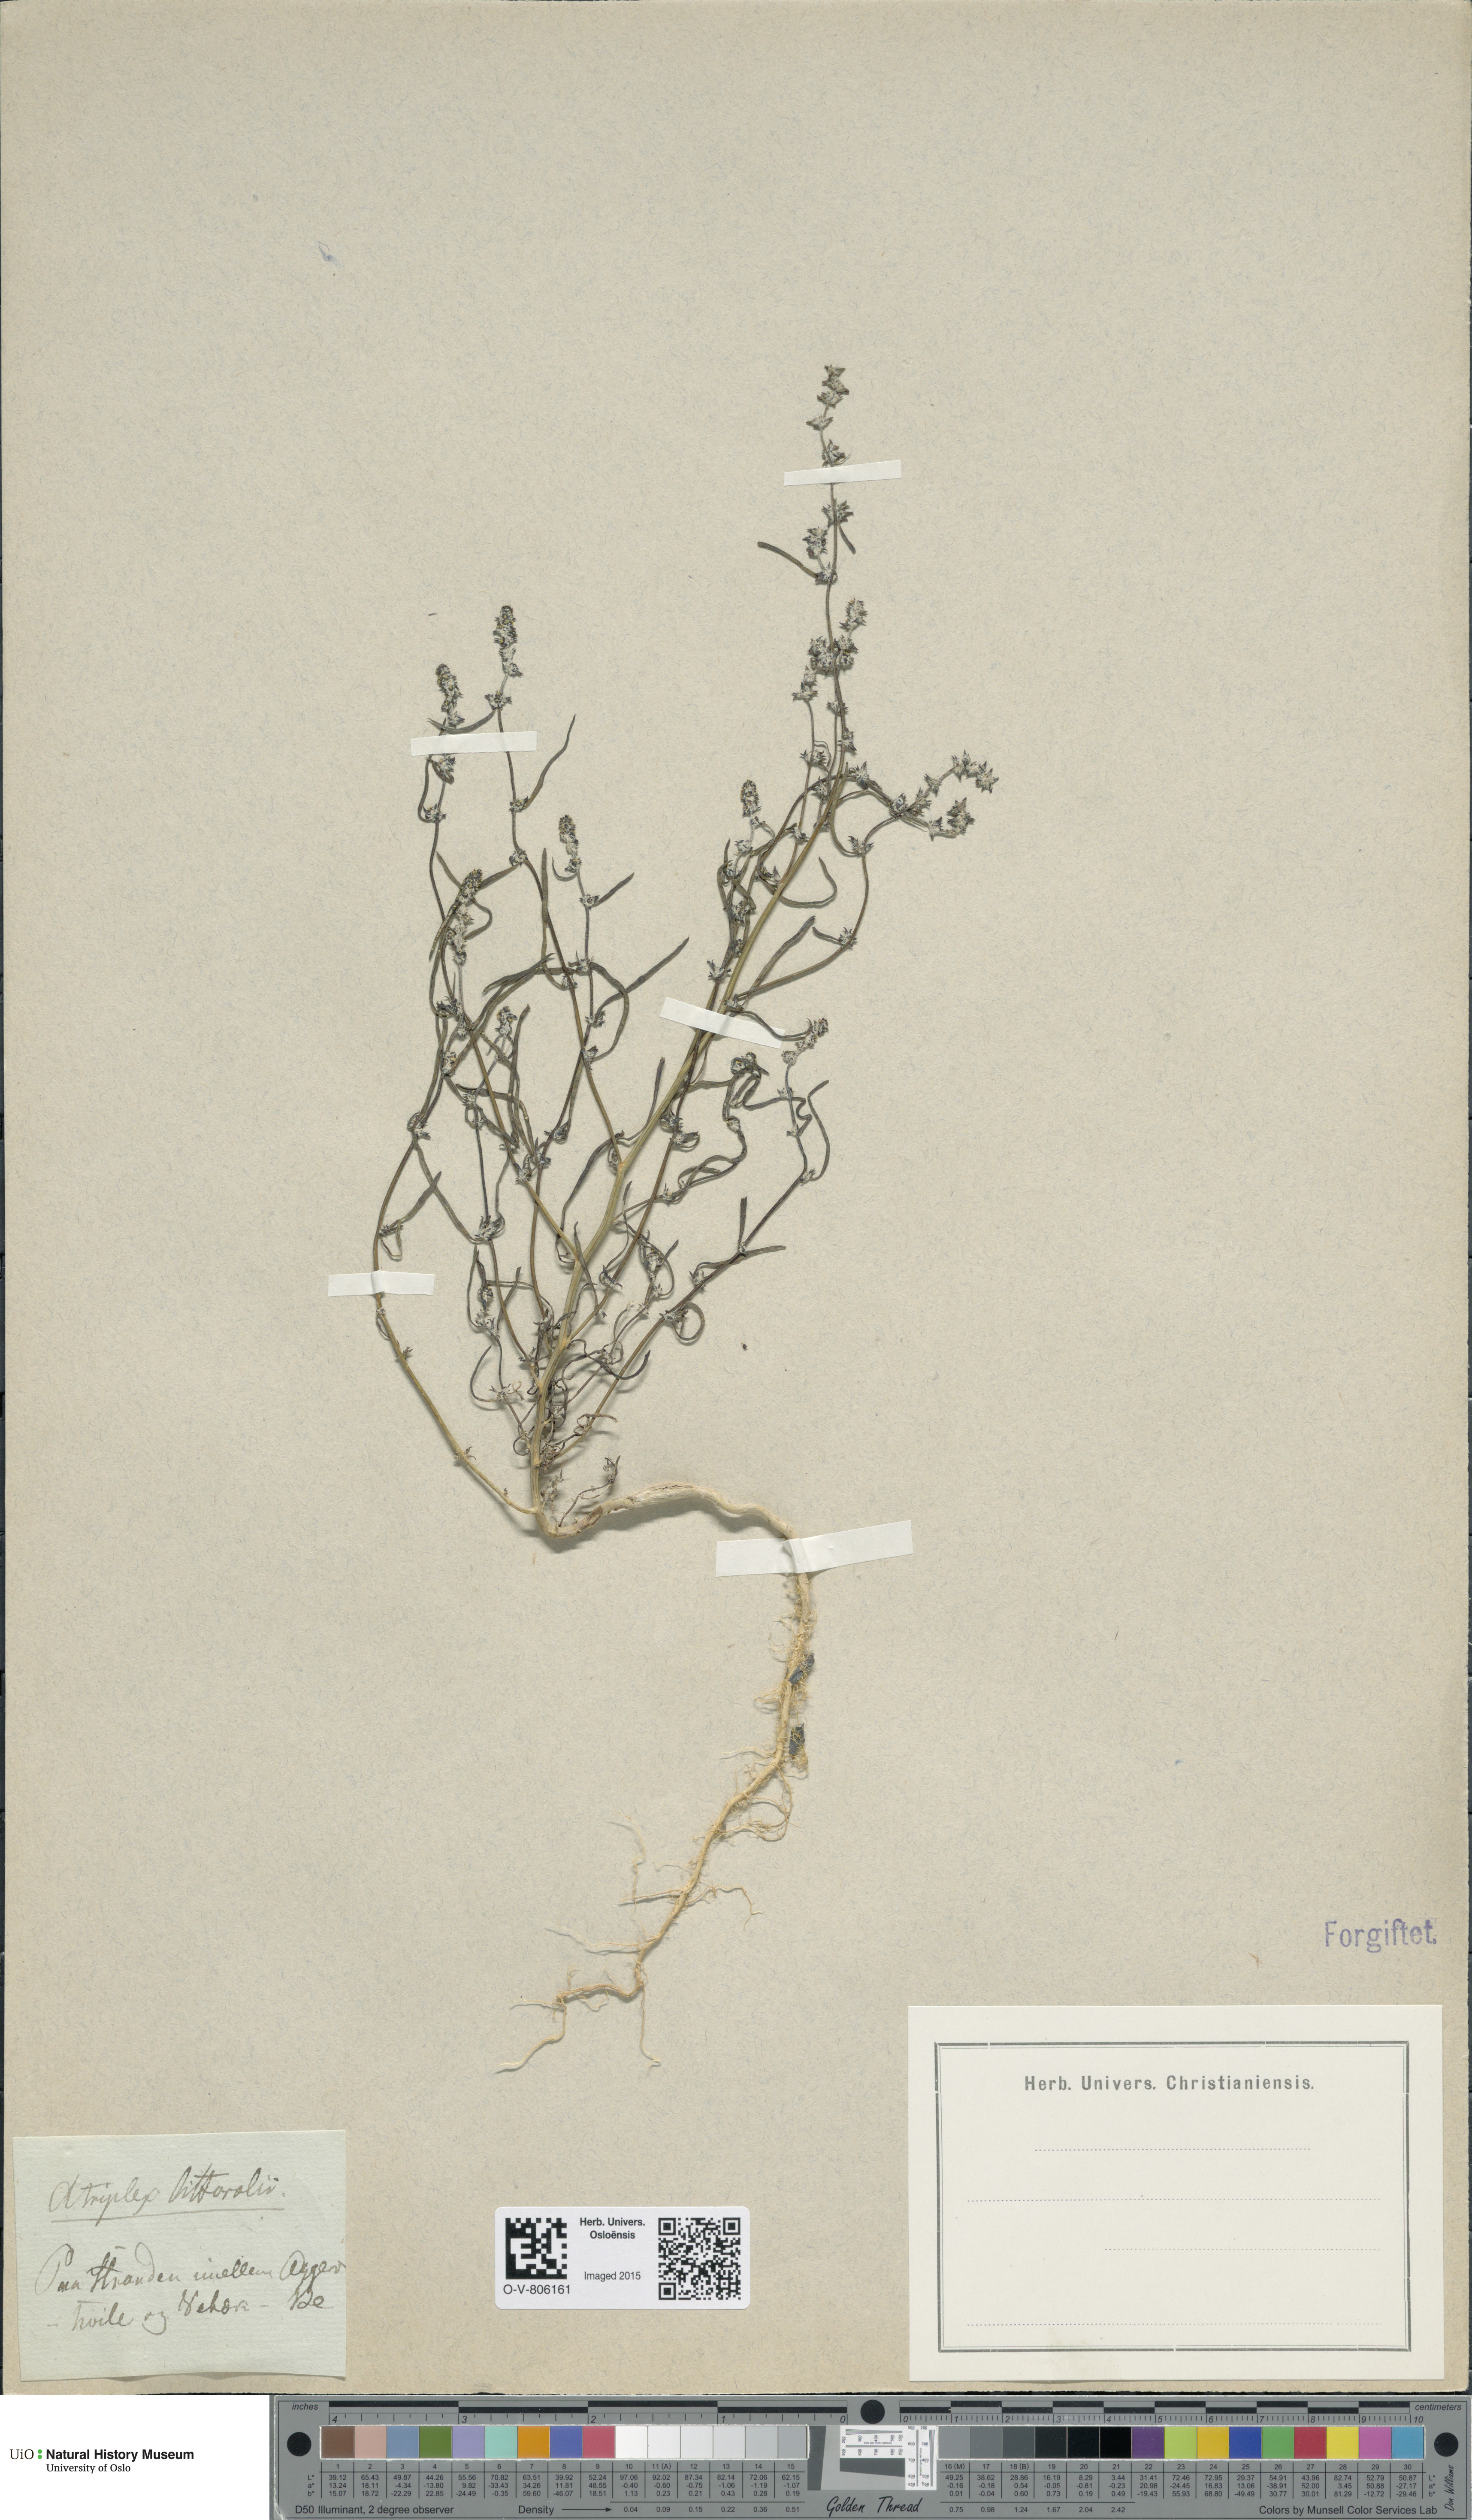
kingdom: Plantae
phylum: Tracheophyta
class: Magnoliopsida
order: Caryophyllales
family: Amaranthaceae
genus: Atriplex
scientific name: Atriplex littoralis
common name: Grass-leaved orache
